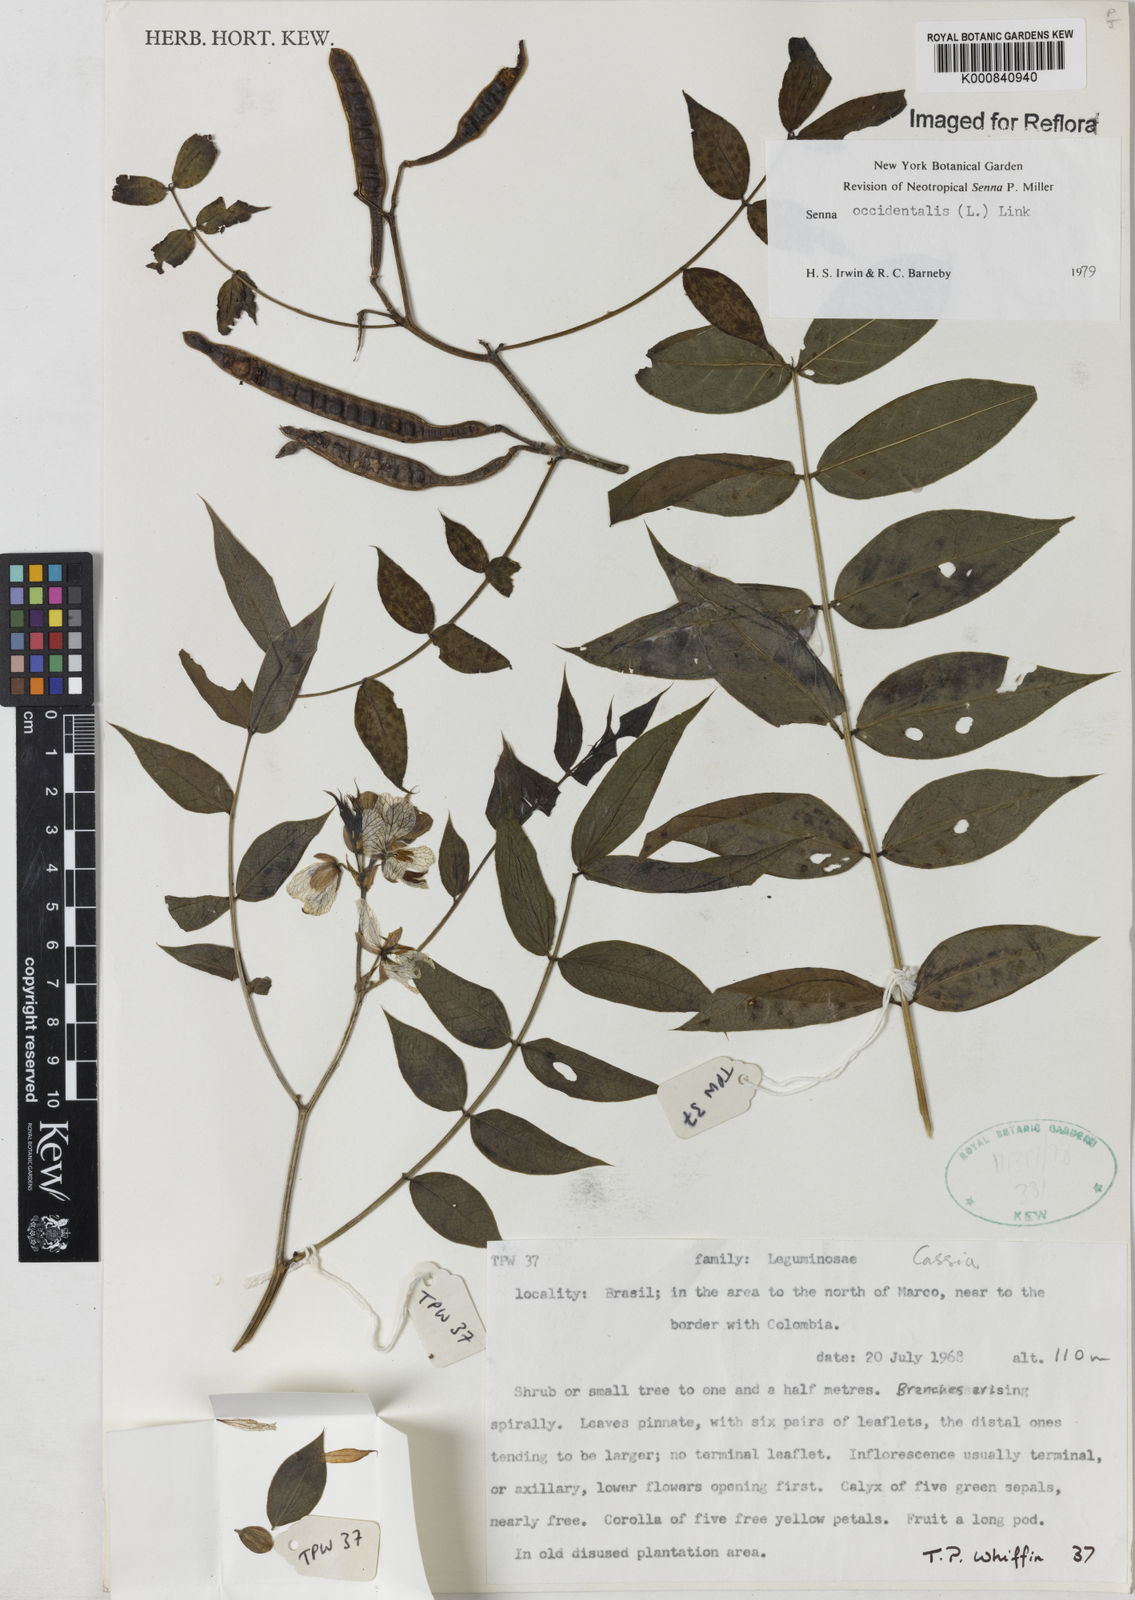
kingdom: Plantae
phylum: Tracheophyta
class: Magnoliopsida
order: Fabales
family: Fabaceae
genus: Senna
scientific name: Senna occidentalis
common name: Septicweed
